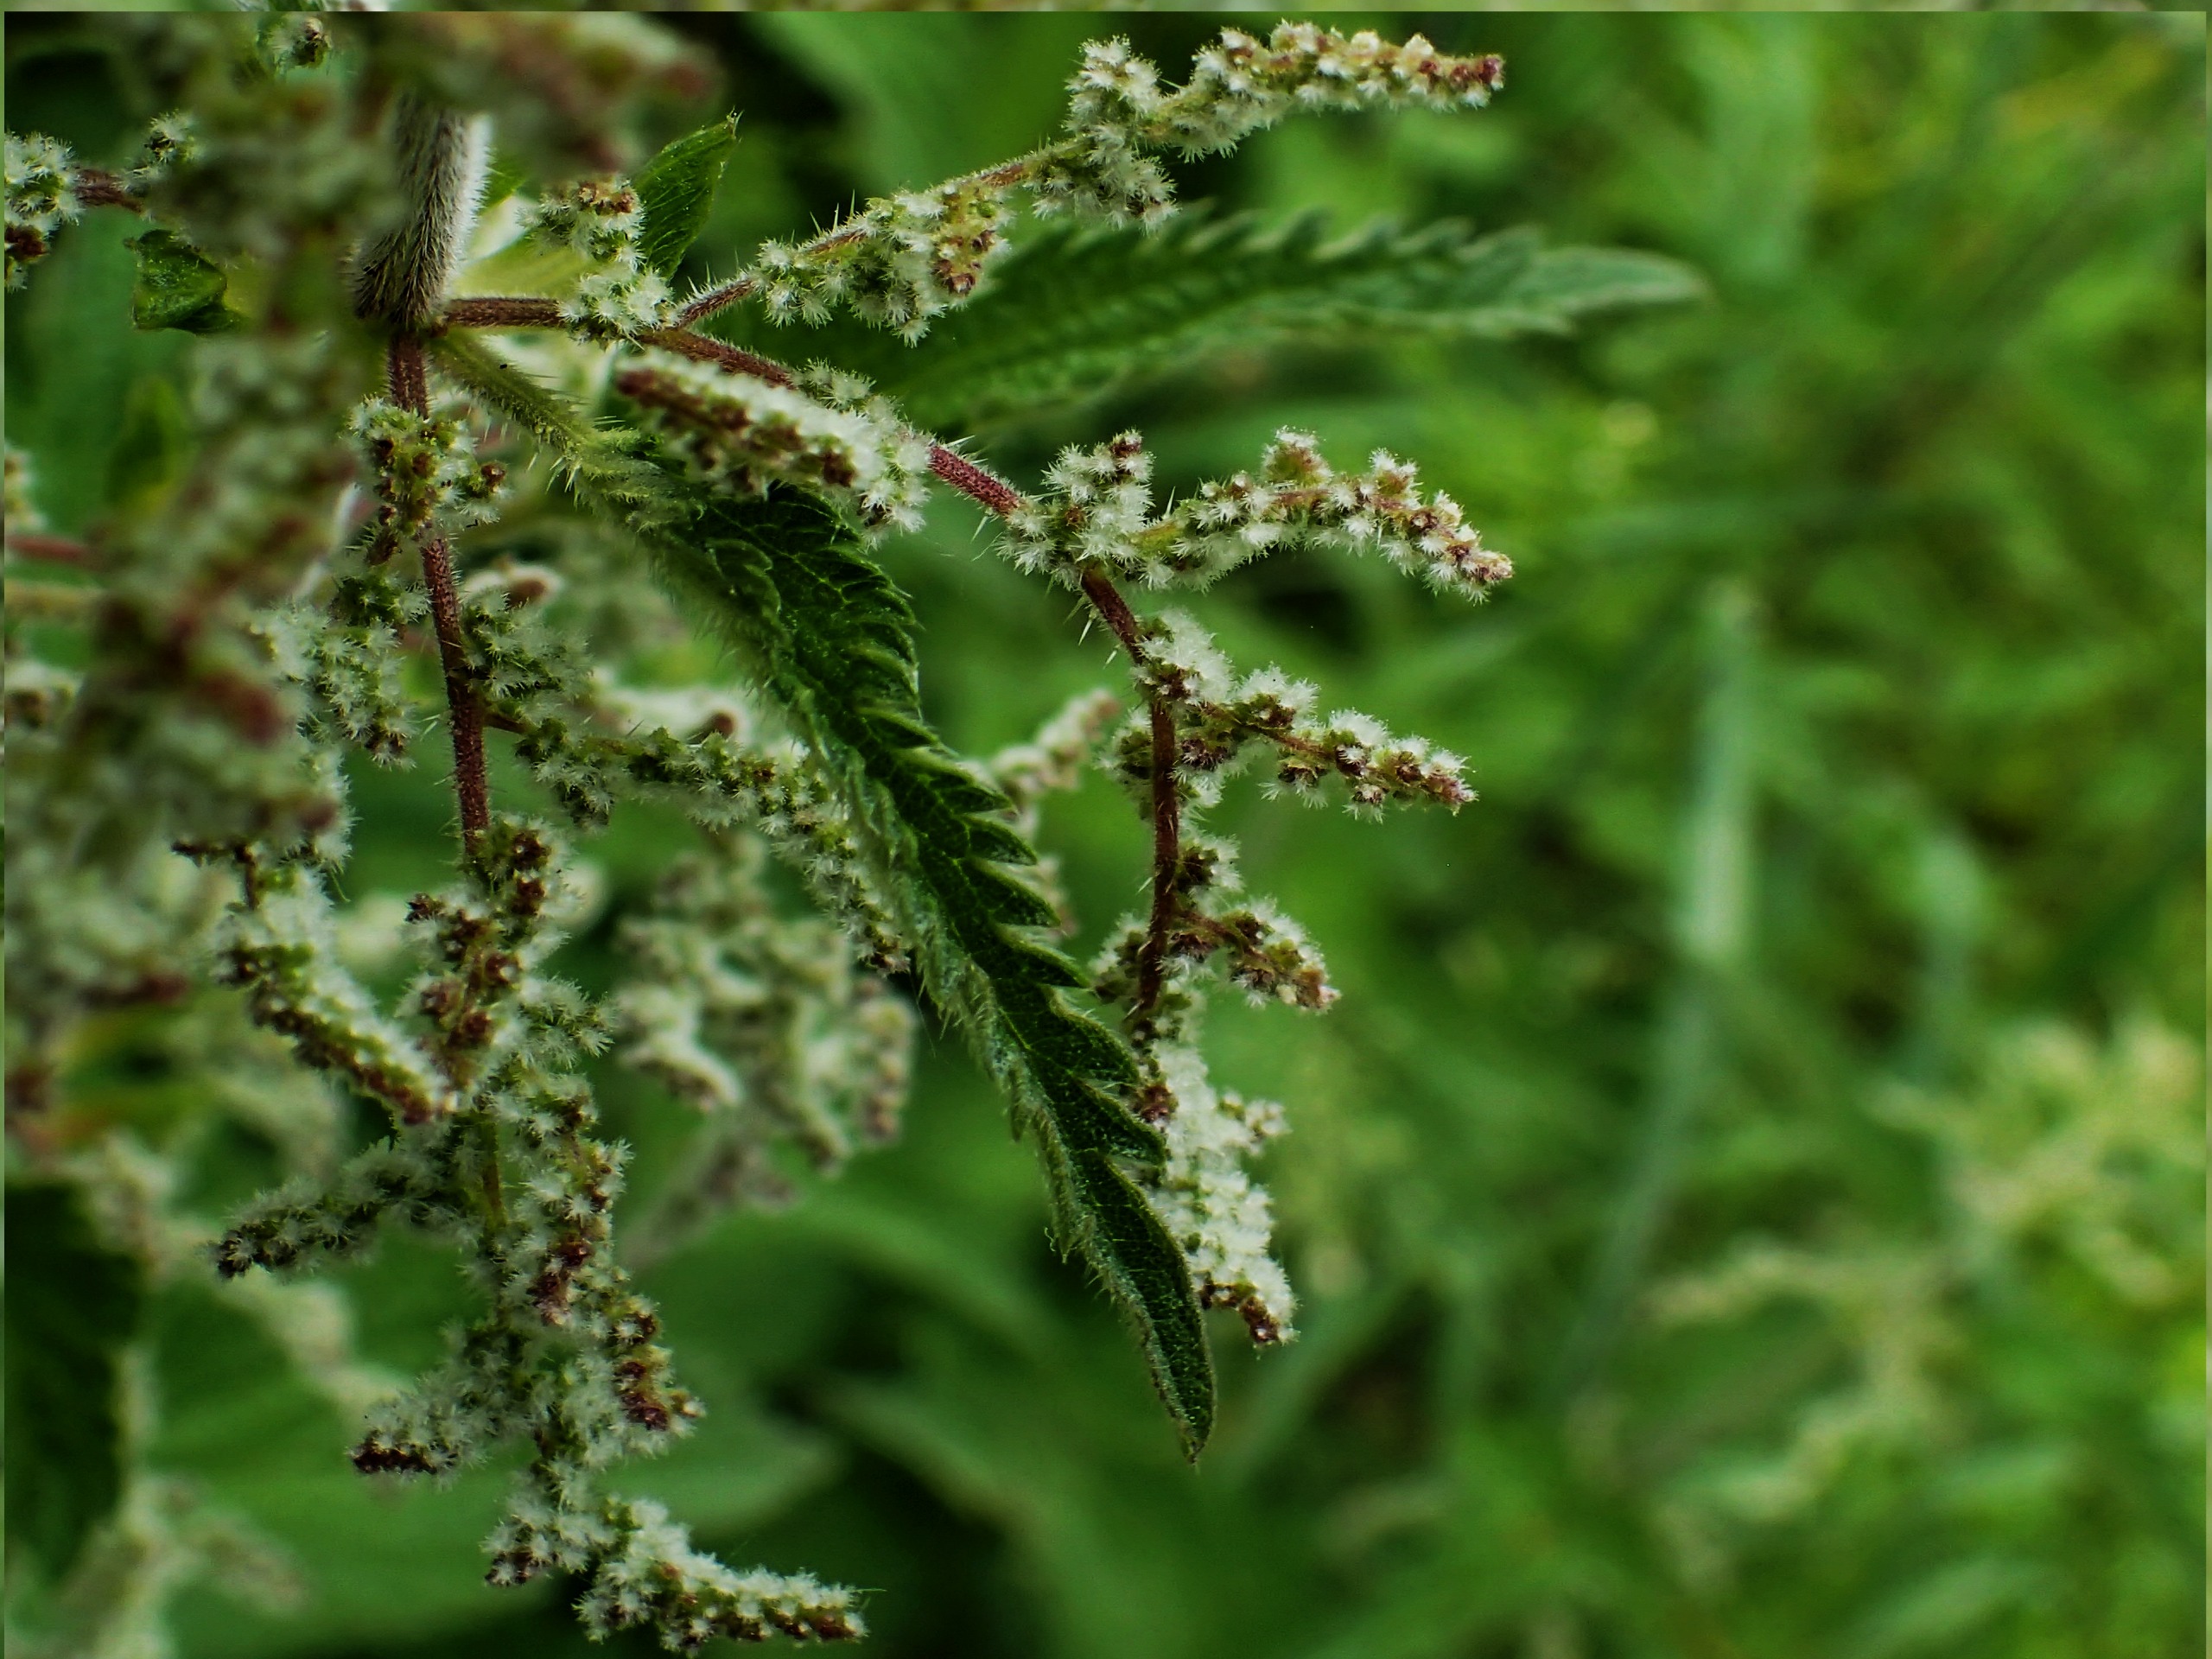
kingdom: Plantae
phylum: Tracheophyta
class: Magnoliopsida
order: Rosales
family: Urticaceae
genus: Urtica
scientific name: Urtica dioica
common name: Stor nælde
